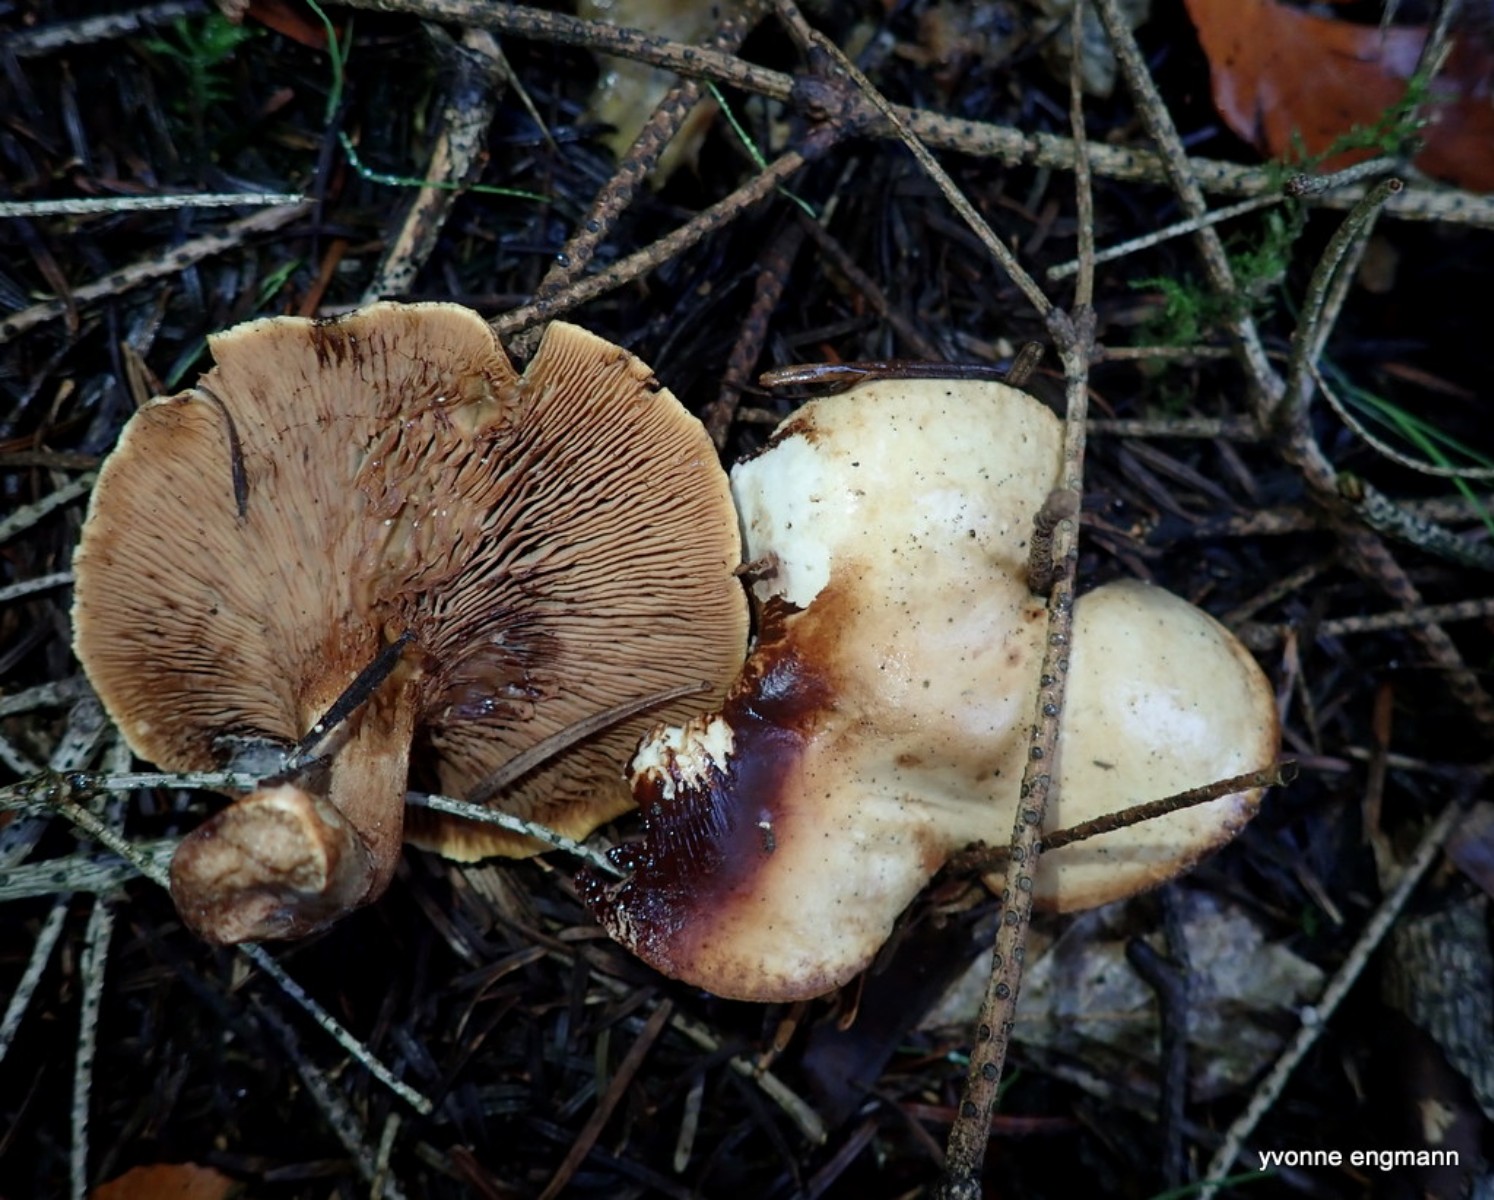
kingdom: Fungi
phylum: Basidiomycota
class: Agaricomycetes
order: Boletales
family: Paxillaceae
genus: Paxillus
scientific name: Paxillus involutus
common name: almindelig netbladhat
